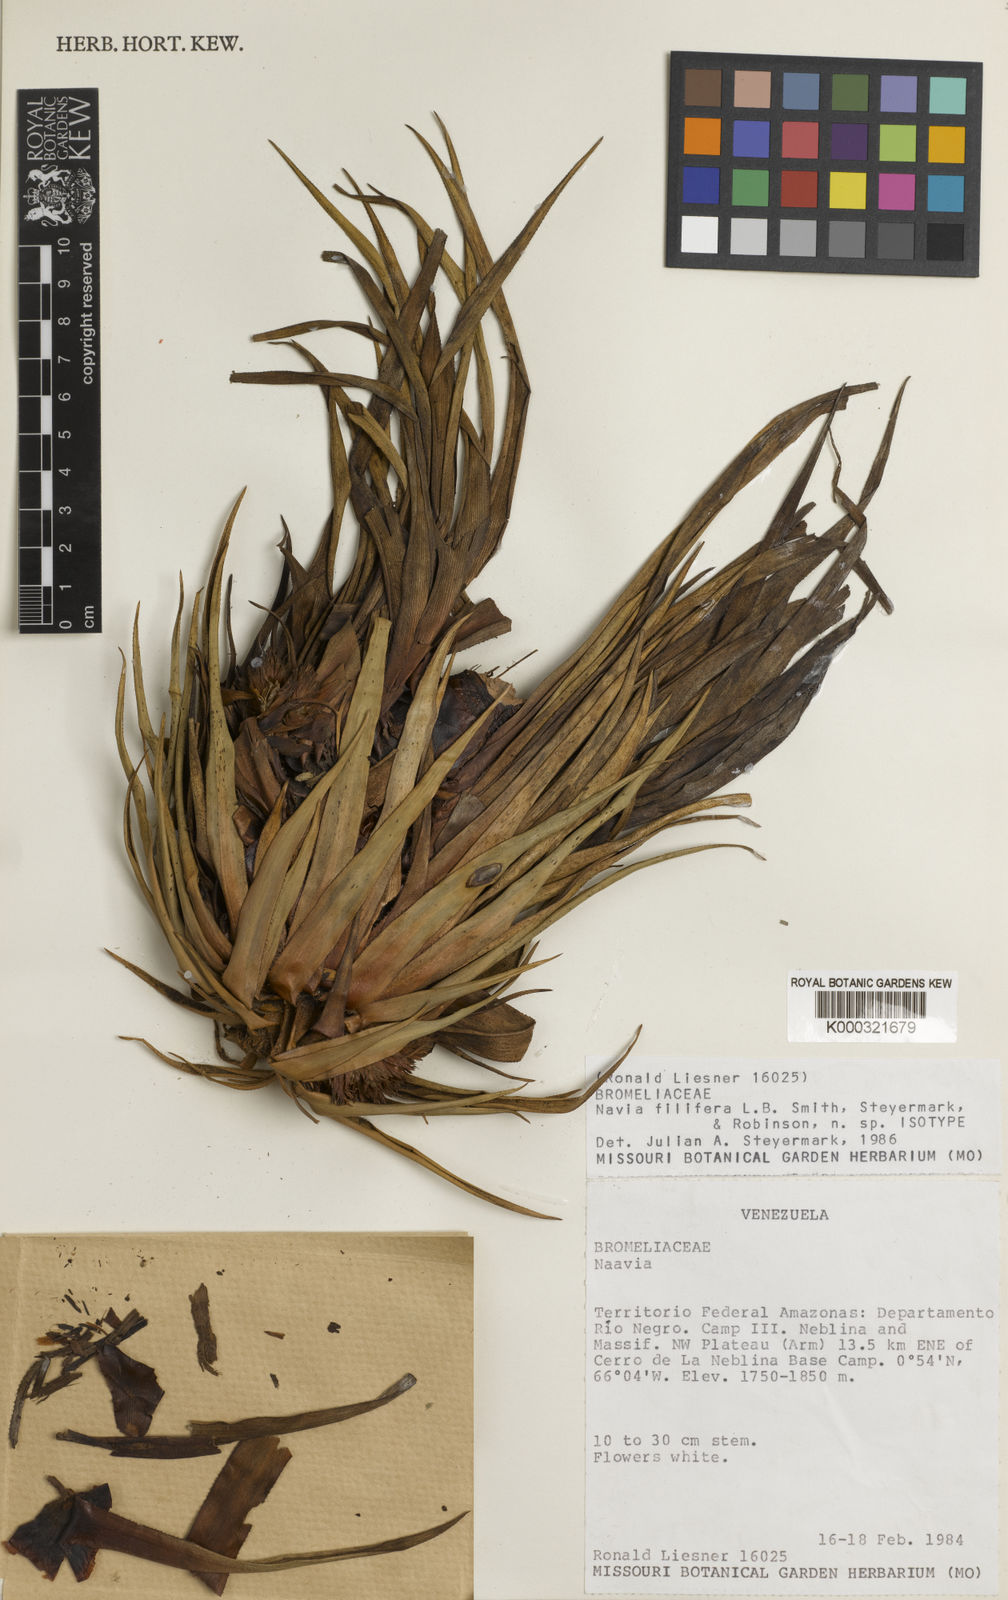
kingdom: Plantae
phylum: Tracheophyta
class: Liliopsida
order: Poales
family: Bromeliaceae
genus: Navia
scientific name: Navia filifera
